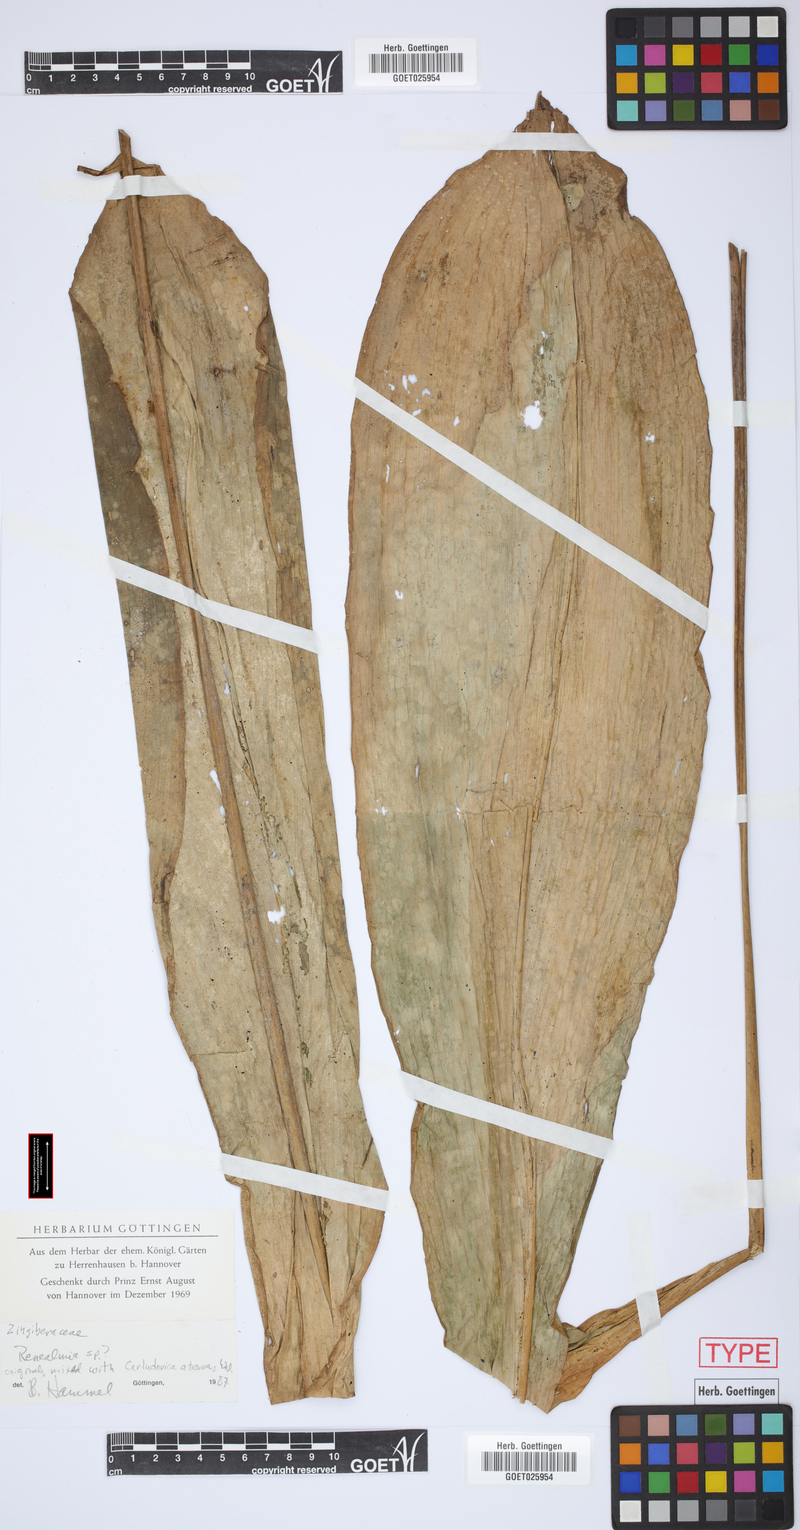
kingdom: Plantae
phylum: Tracheophyta
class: Liliopsida
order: Pandanales
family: Cyclanthaceae
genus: Dicranopygium
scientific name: Dicranopygium atrovirens
